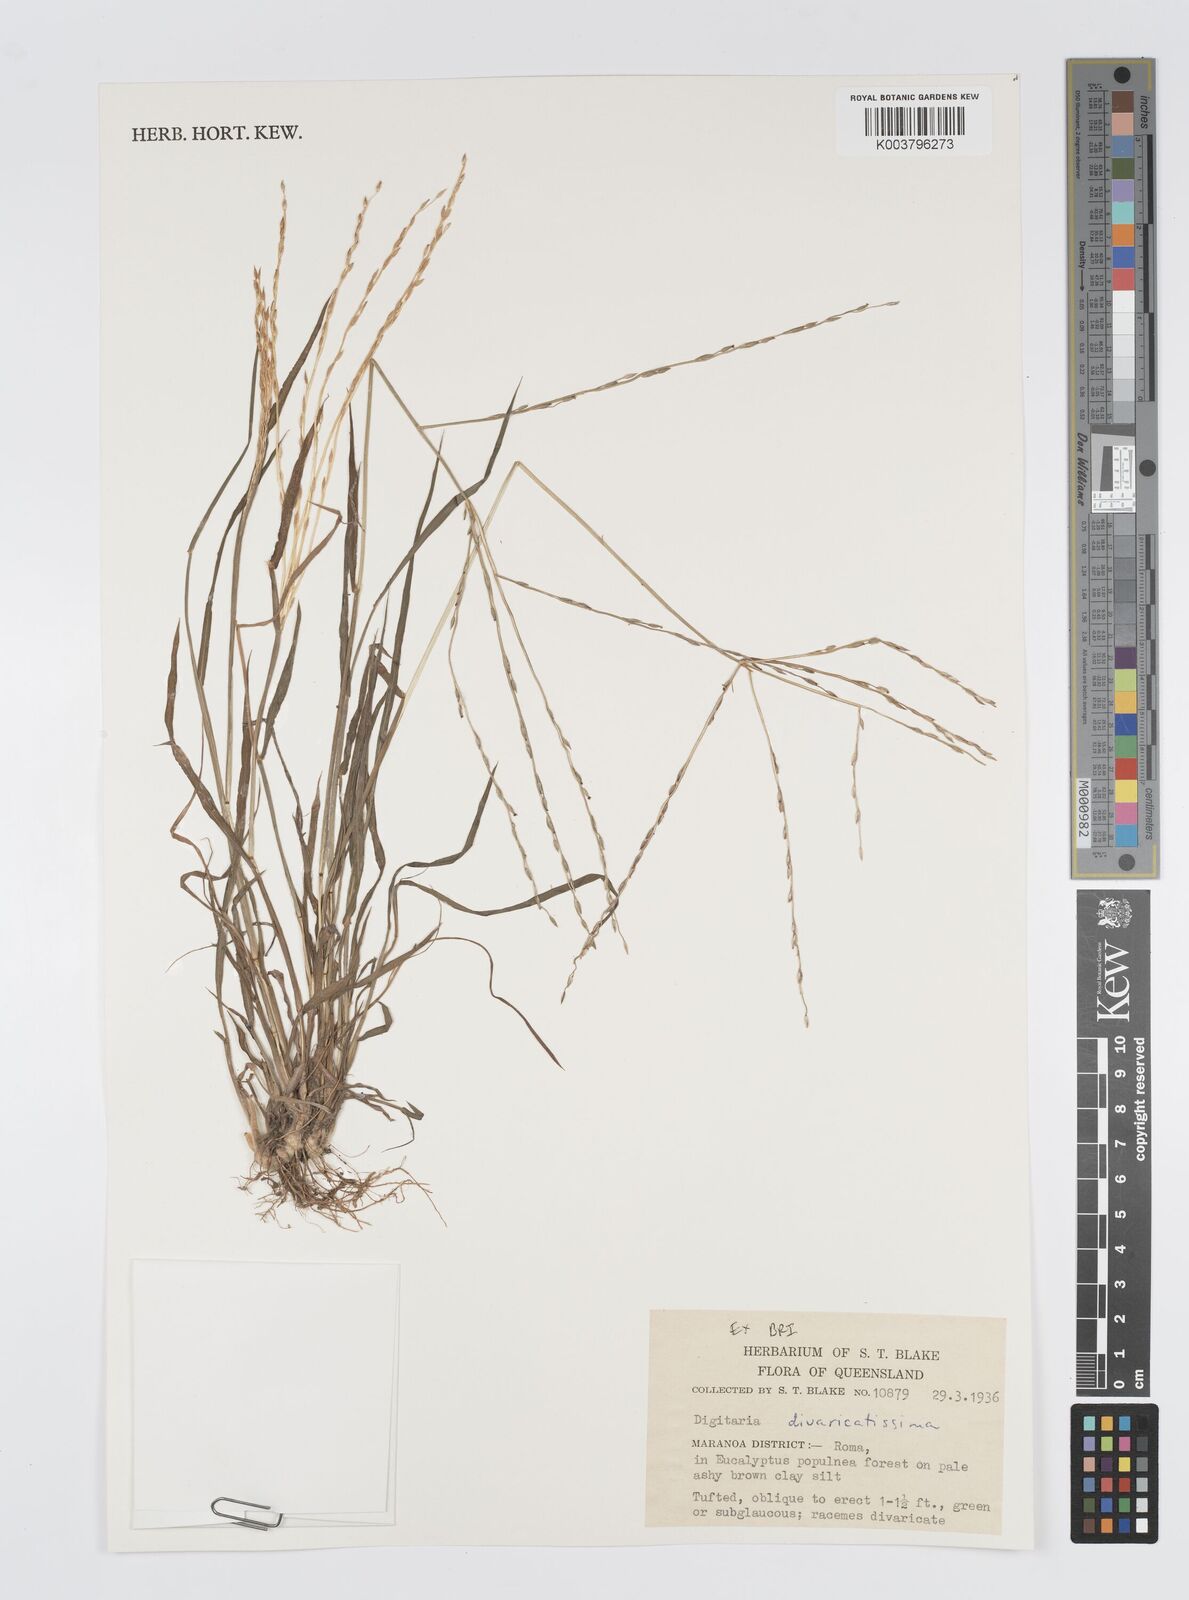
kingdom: Plantae
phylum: Tracheophyta
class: Liliopsida
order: Poales
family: Poaceae
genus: Digitaria
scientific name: Digitaria divaricatissima
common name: Crabgrass
